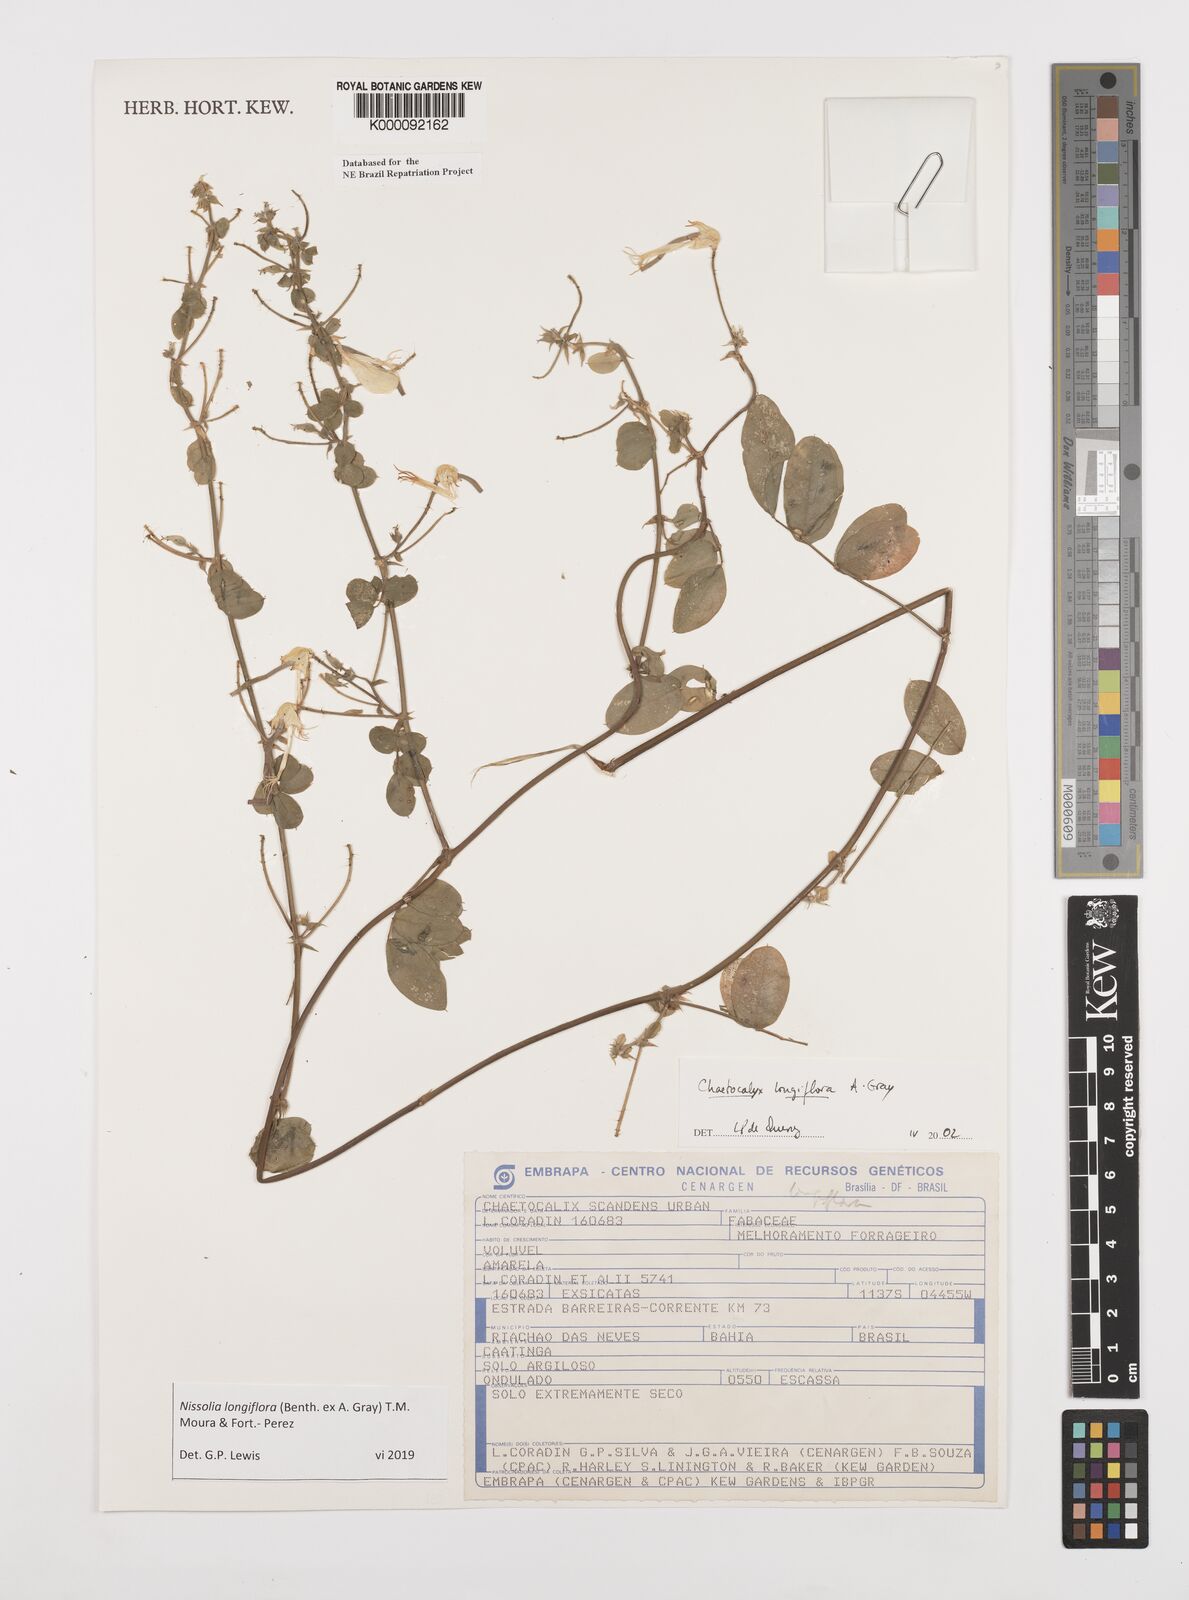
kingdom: Plantae
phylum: Tracheophyta
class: Magnoliopsida
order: Fabales
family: Fabaceae
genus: Nissolia
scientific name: Nissolia longiflora
